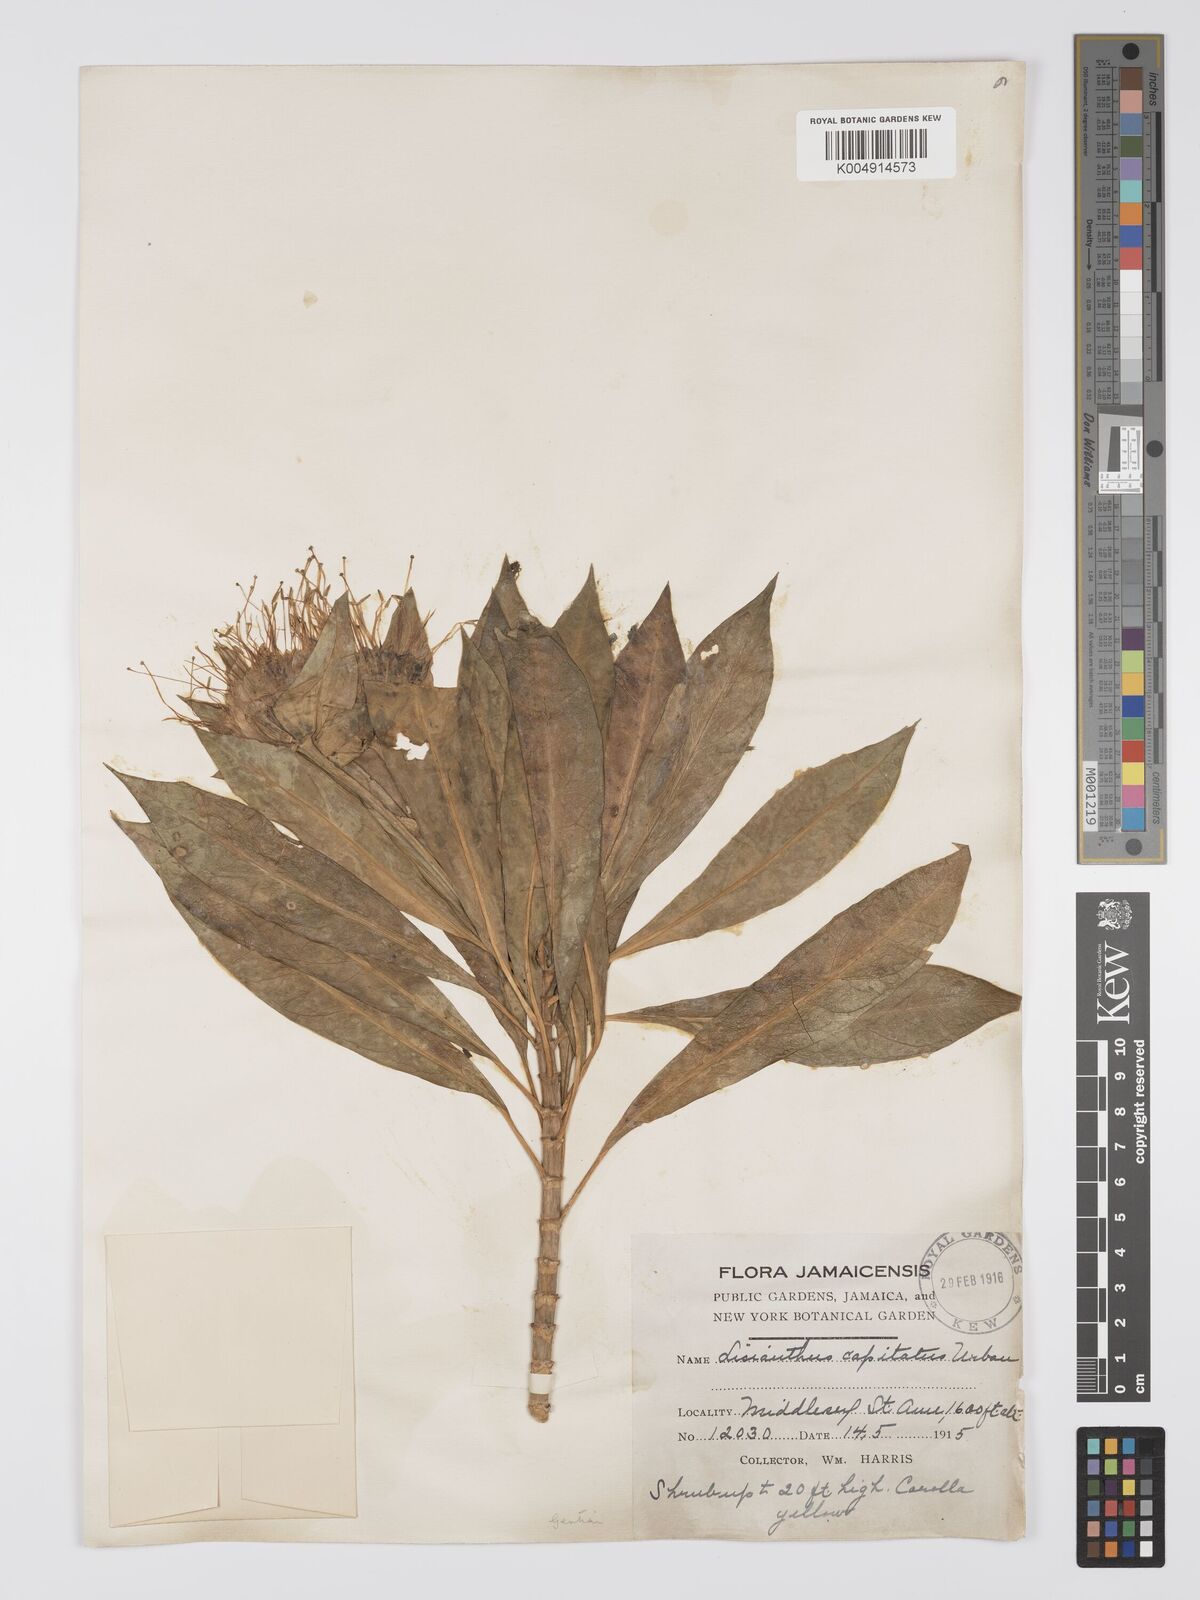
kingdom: Plantae
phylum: Tracheophyta
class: Magnoliopsida
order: Gentianales
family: Gentianaceae
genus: Lisianthius
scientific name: Lisianthius capitatus
